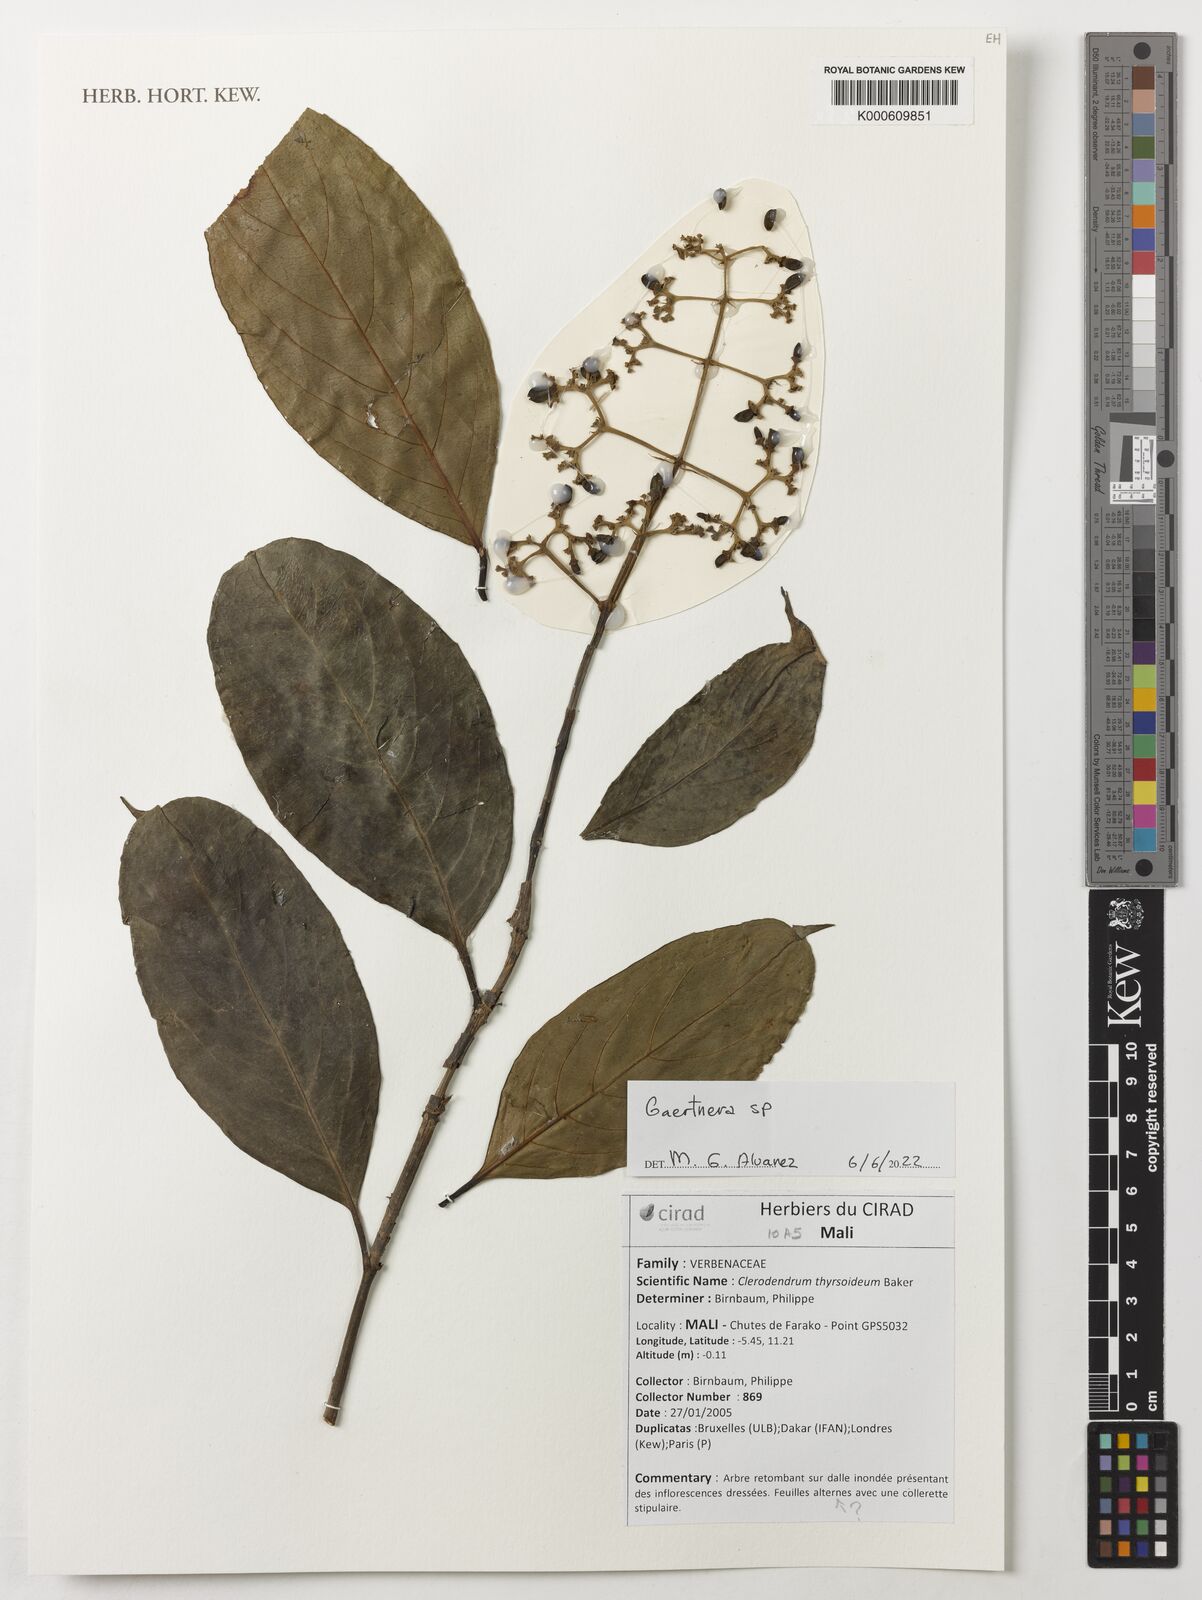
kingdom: Plantae
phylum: Tracheophyta
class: Magnoliopsida
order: Gentianales
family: Rubiaceae
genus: Gaertnera
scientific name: Gaertnera
